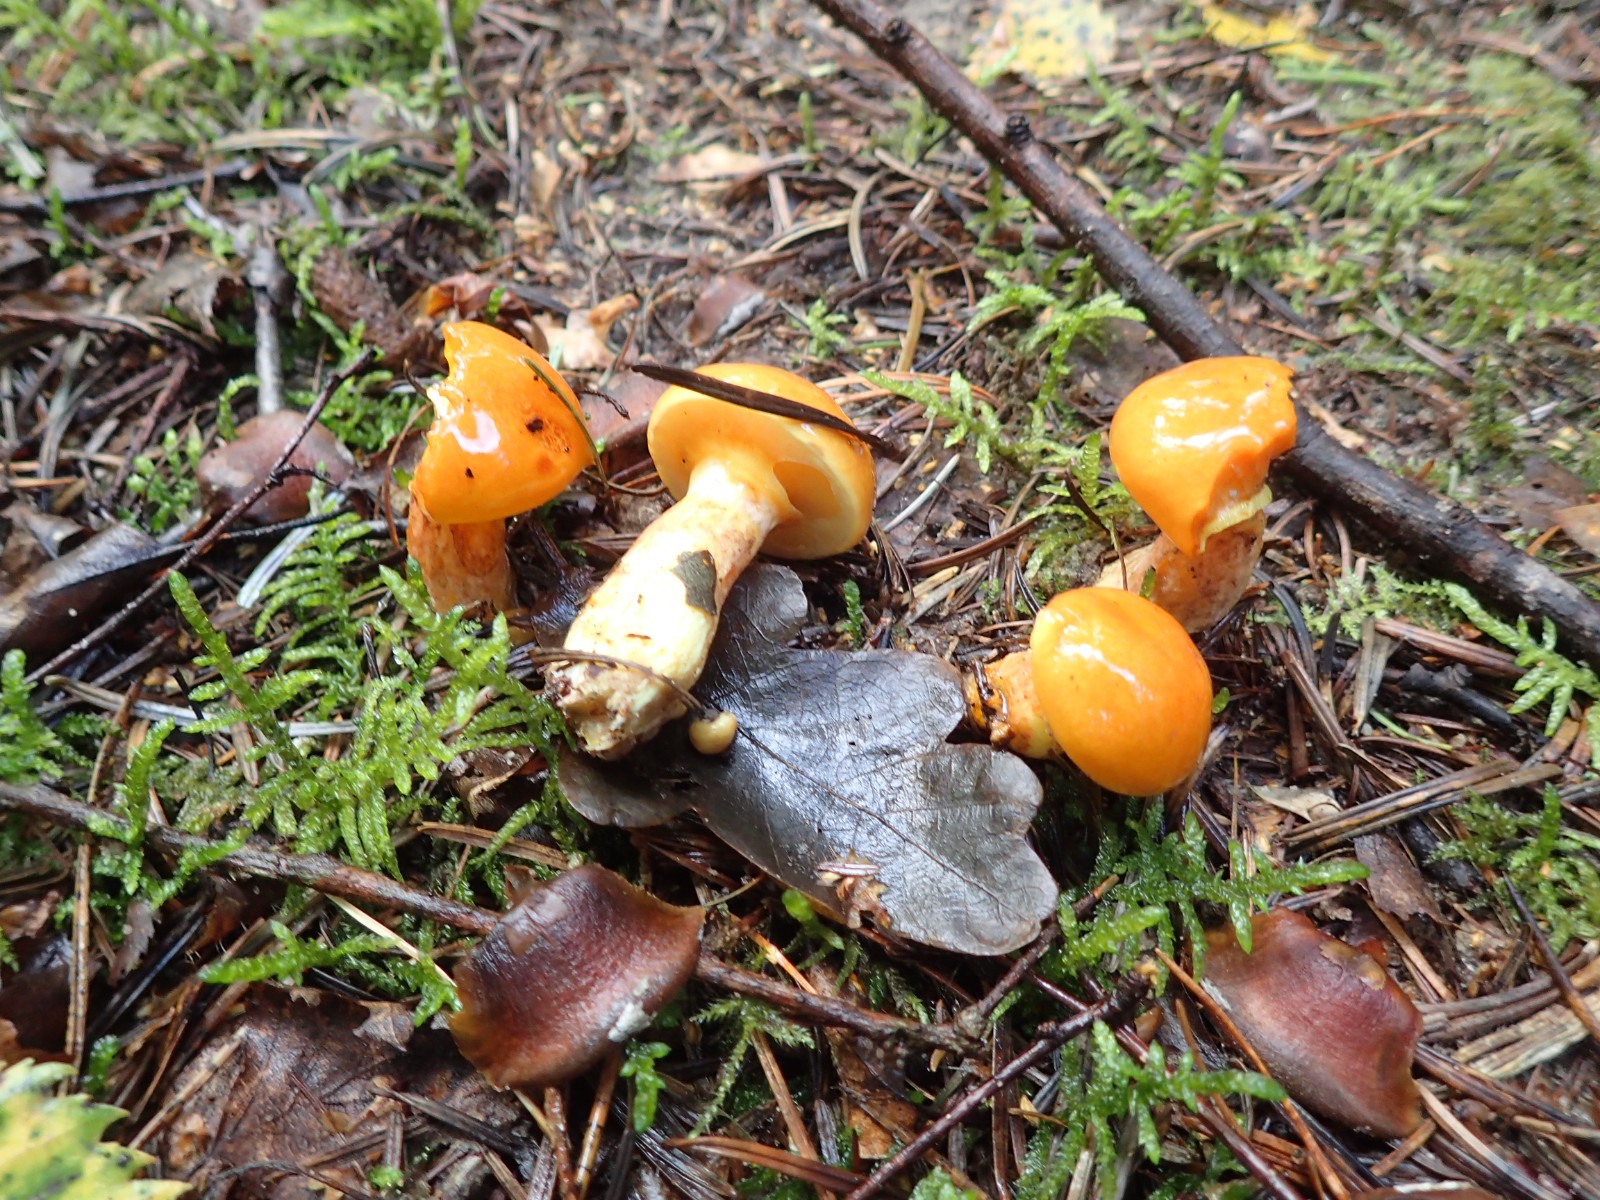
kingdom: Fungi
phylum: Basidiomycota
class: Agaricomycetes
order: Boletales
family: Suillaceae
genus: Suillus
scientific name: Suillus grevillei
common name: lærke-slimrørhat
